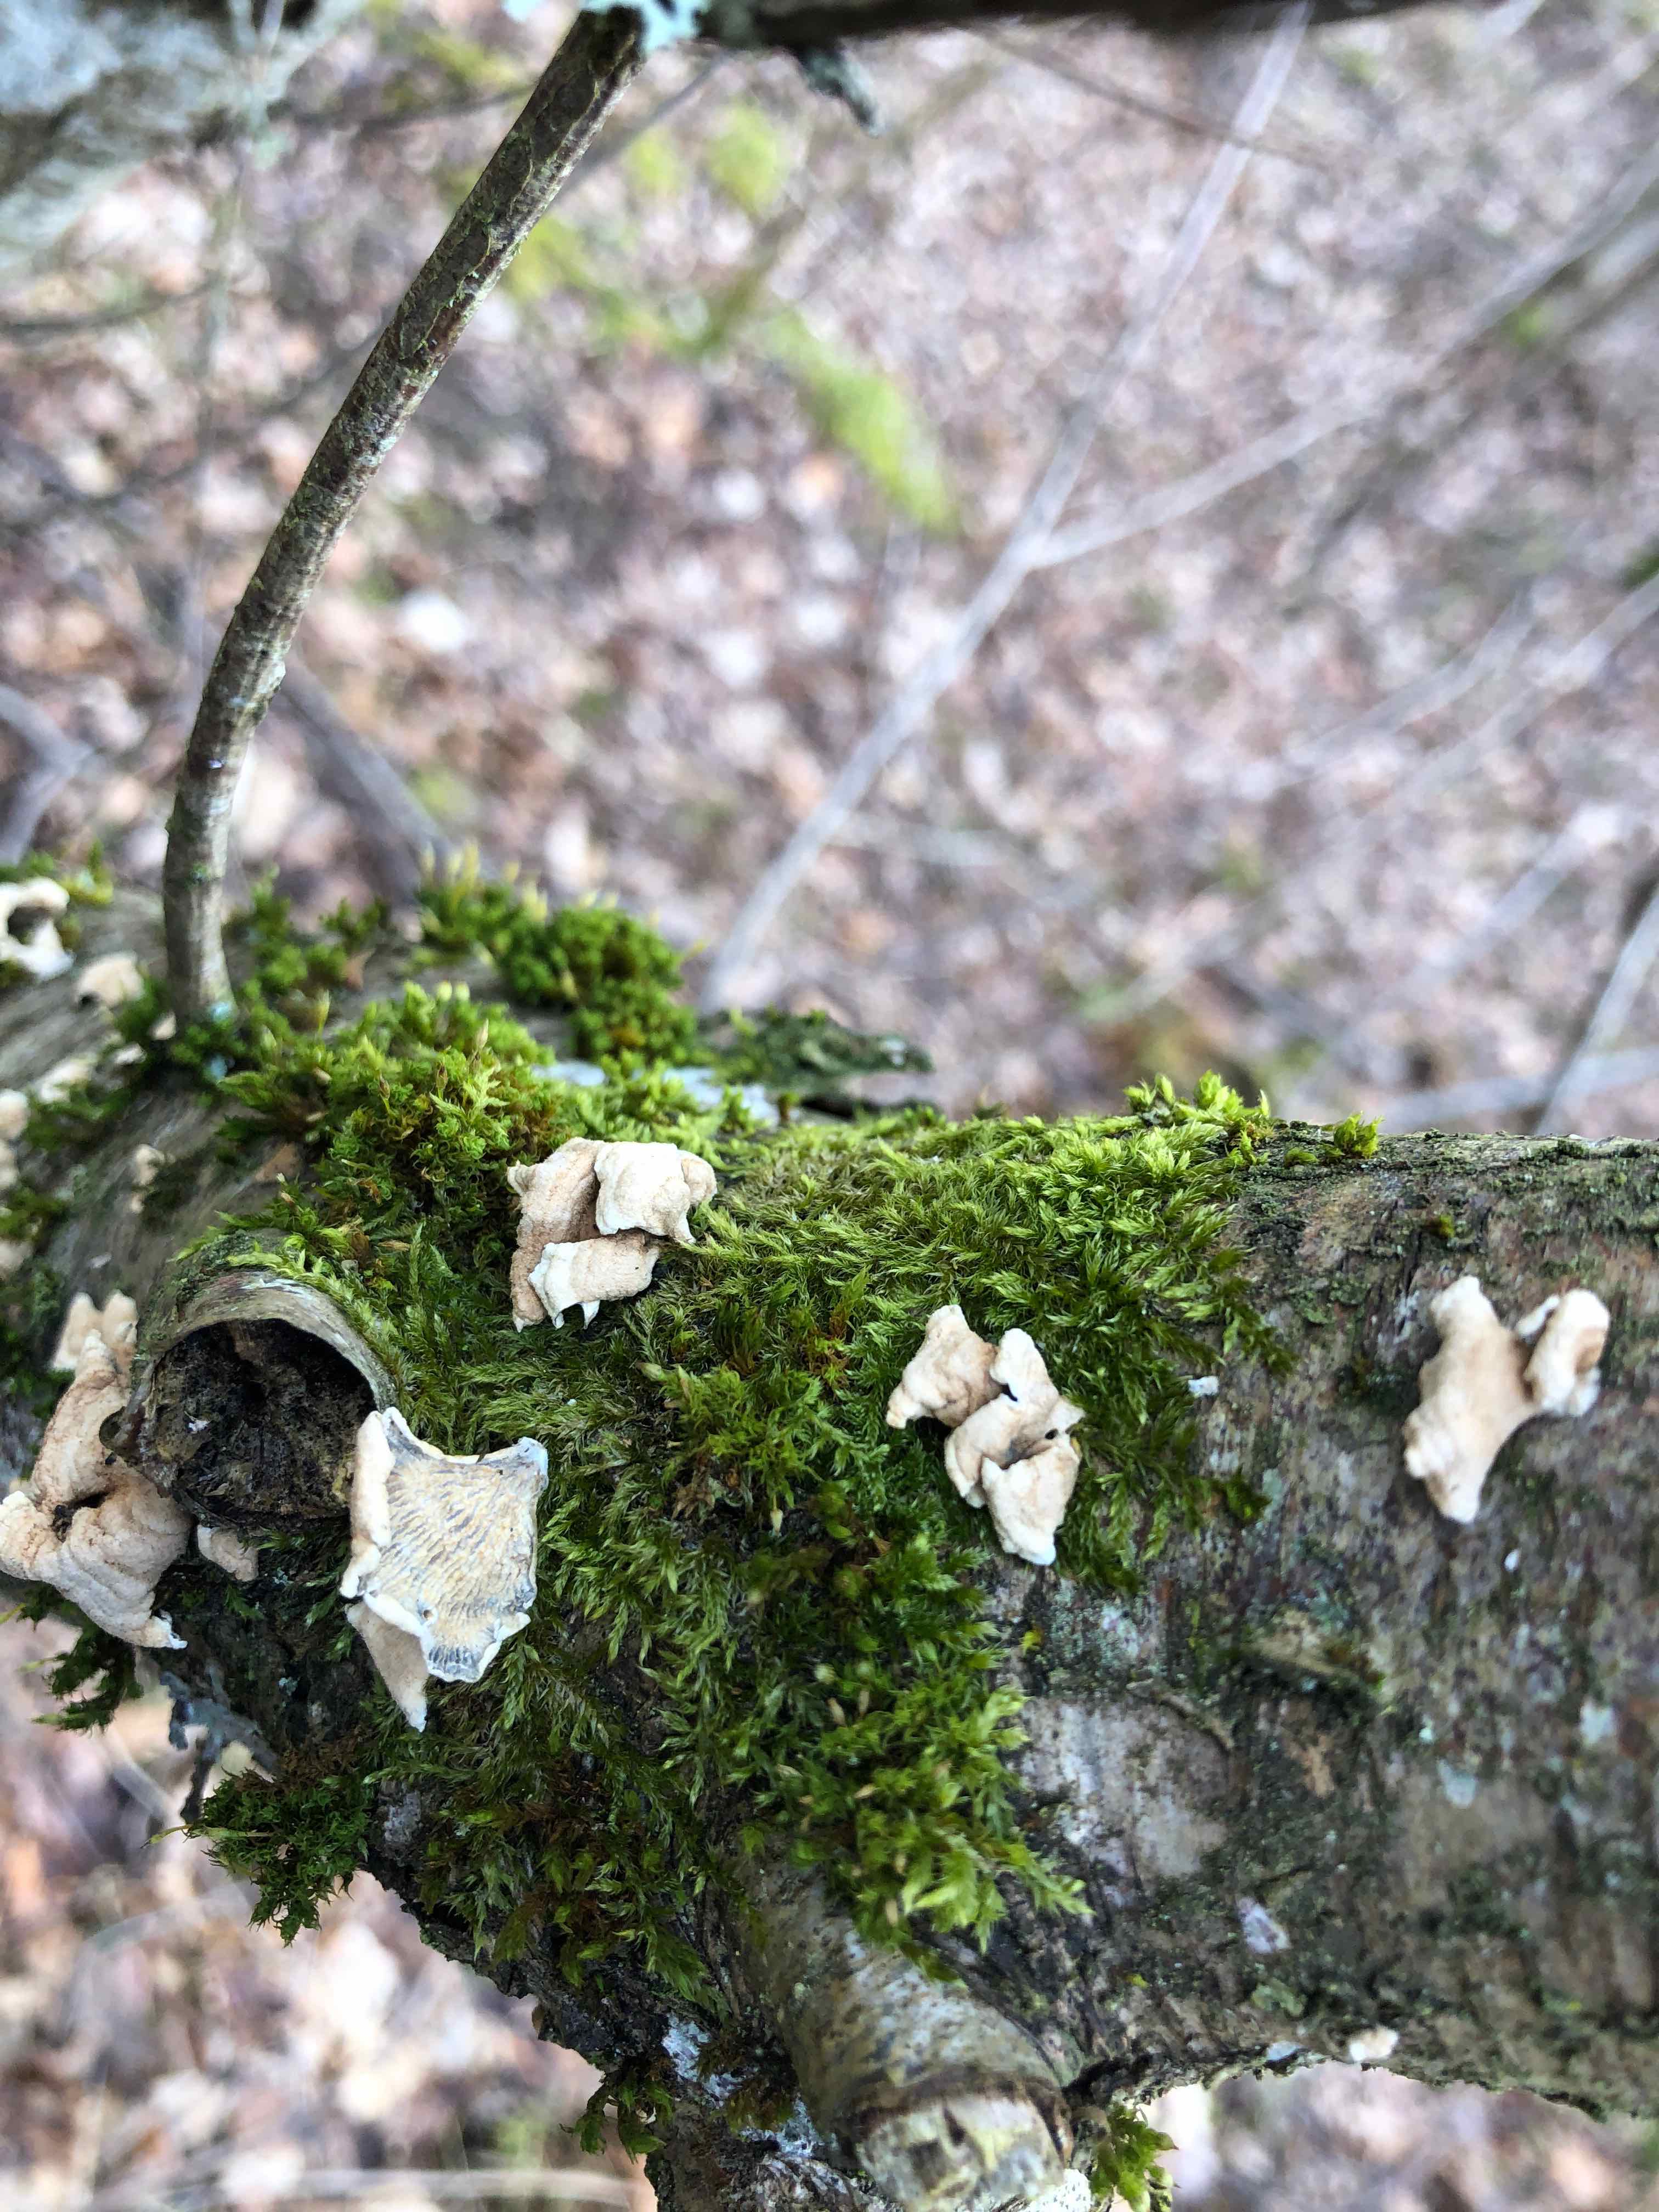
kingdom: Fungi
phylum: Basidiomycota
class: Agaricomycetes
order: Amylocorticiales
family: Amylocorticiaceae
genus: Plicaturopsis
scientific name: Plicaturopsis crispa
